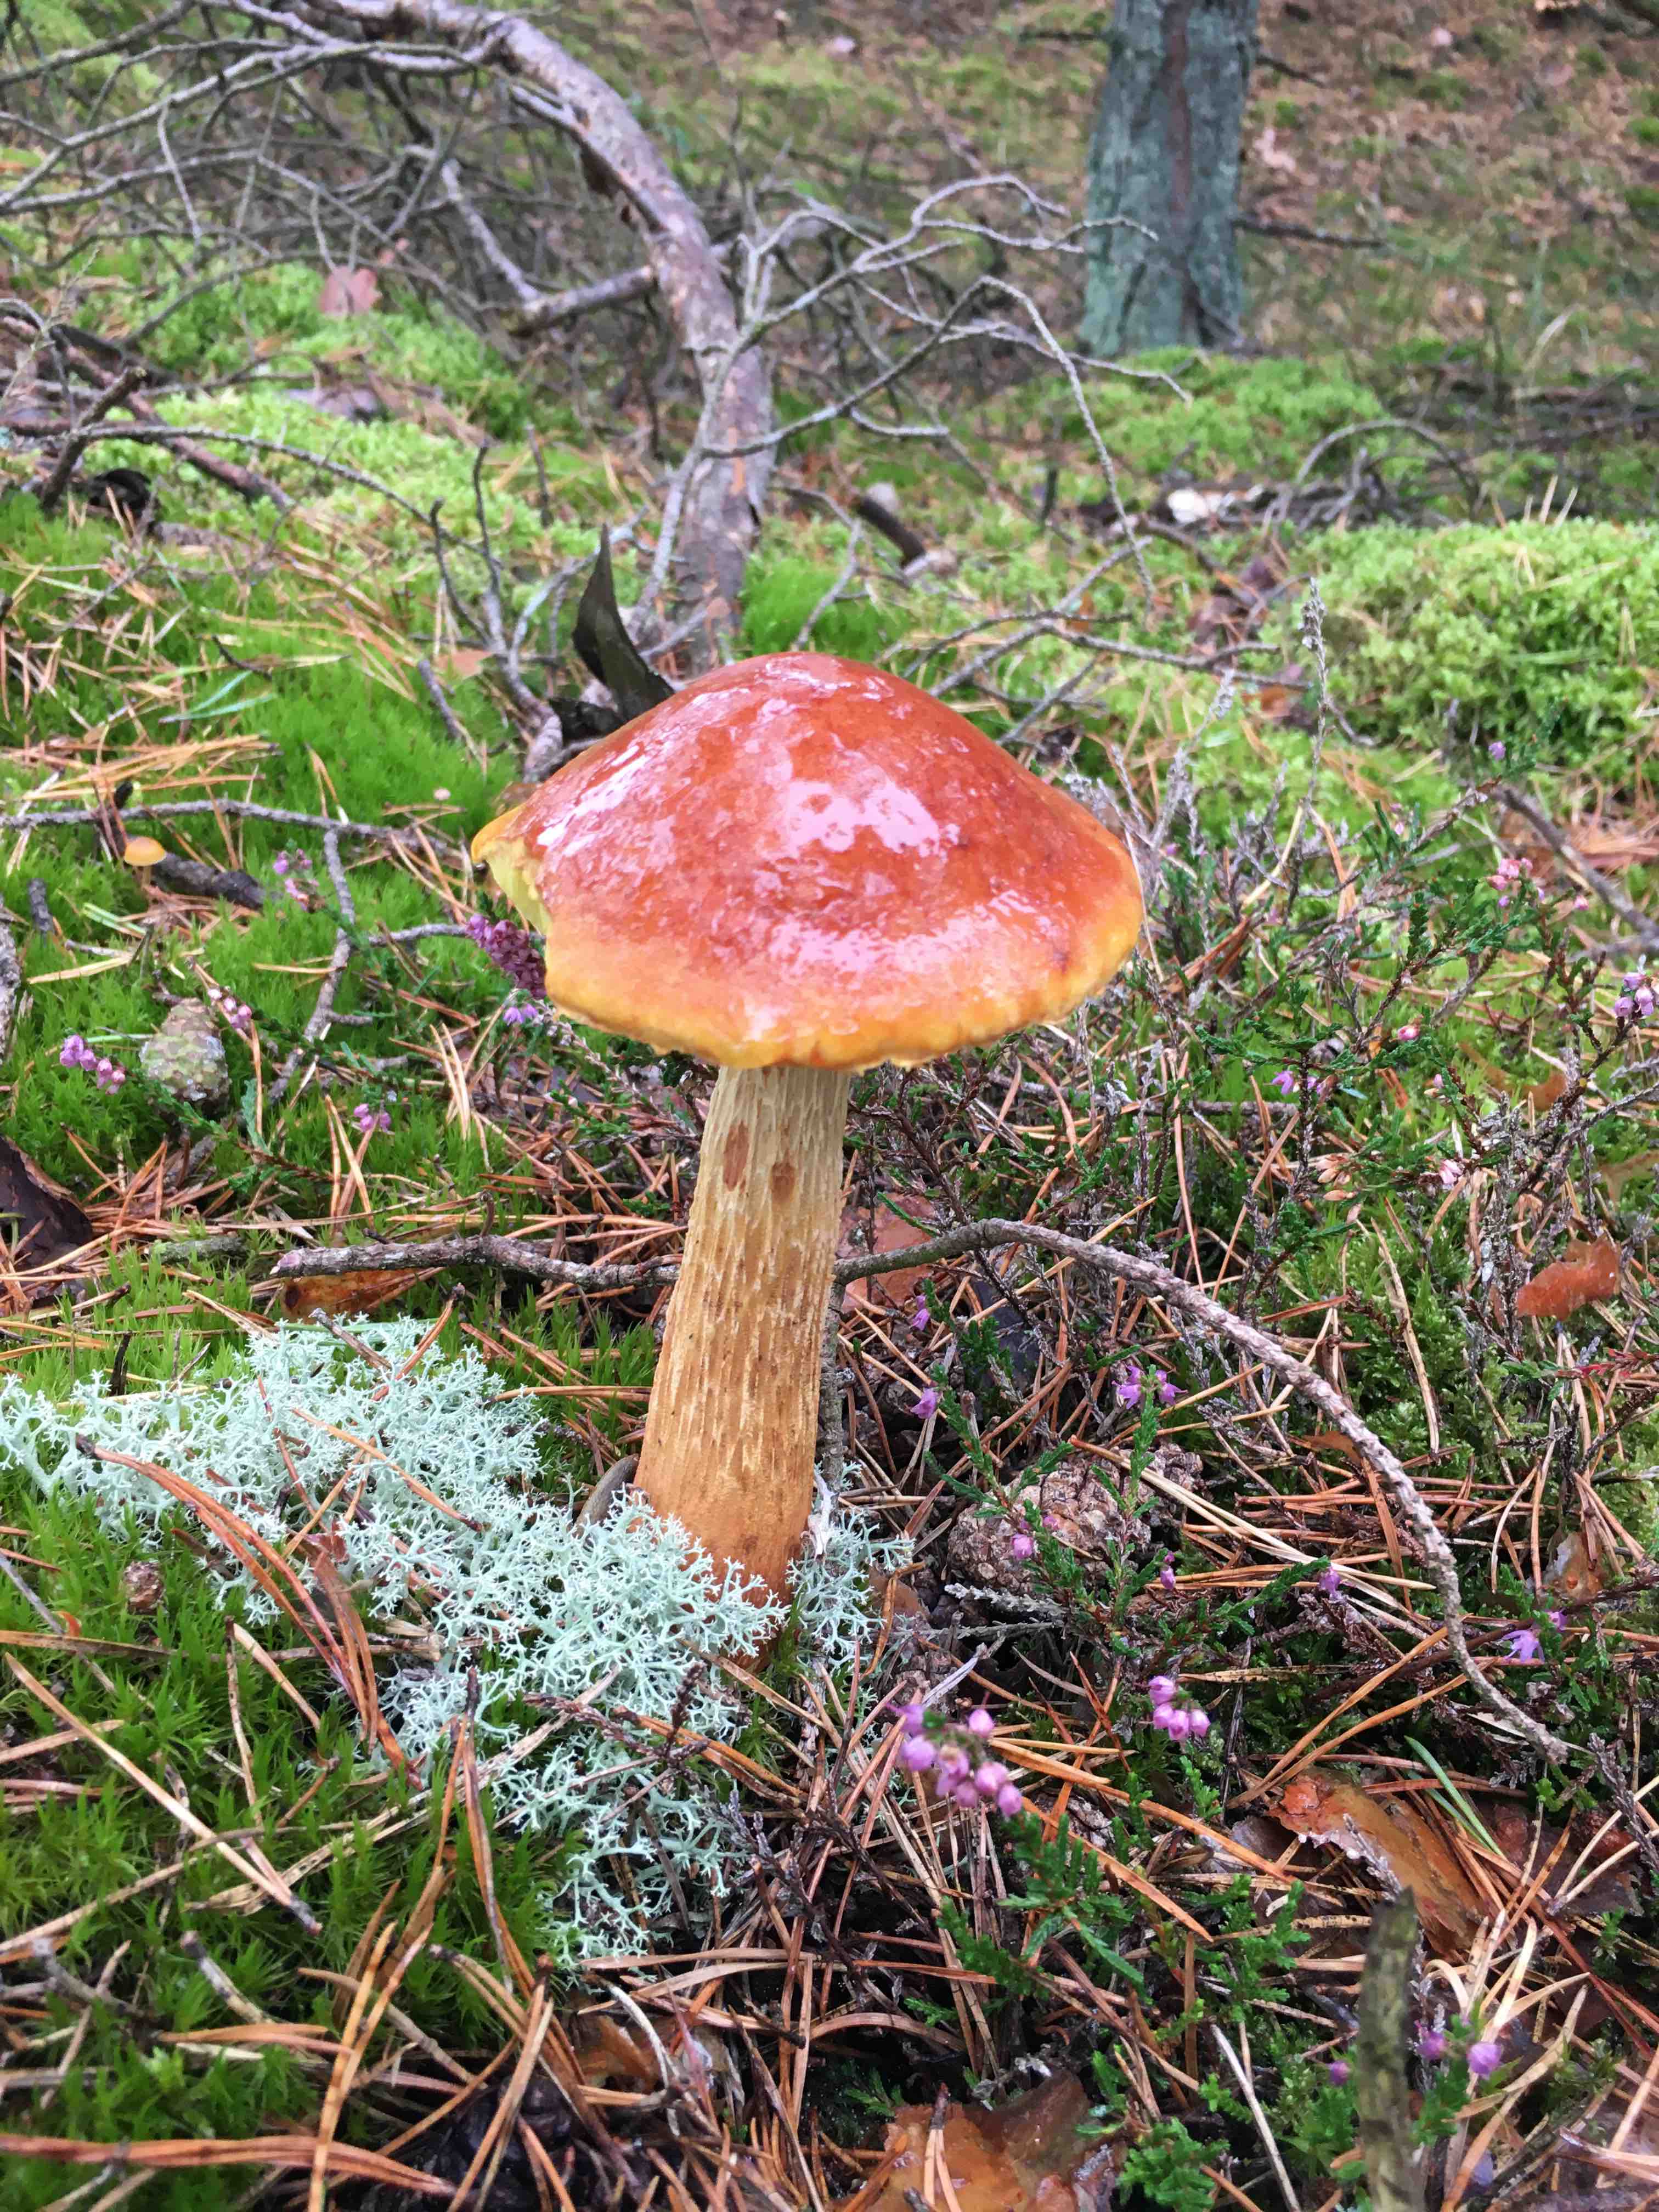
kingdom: Fungi
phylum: Basidiomycota
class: Agaricomycetes
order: Boletales
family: Boletaceae
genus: Aureoboletus
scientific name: Aureoboletus projectellus
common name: ribbestokket rørhat
